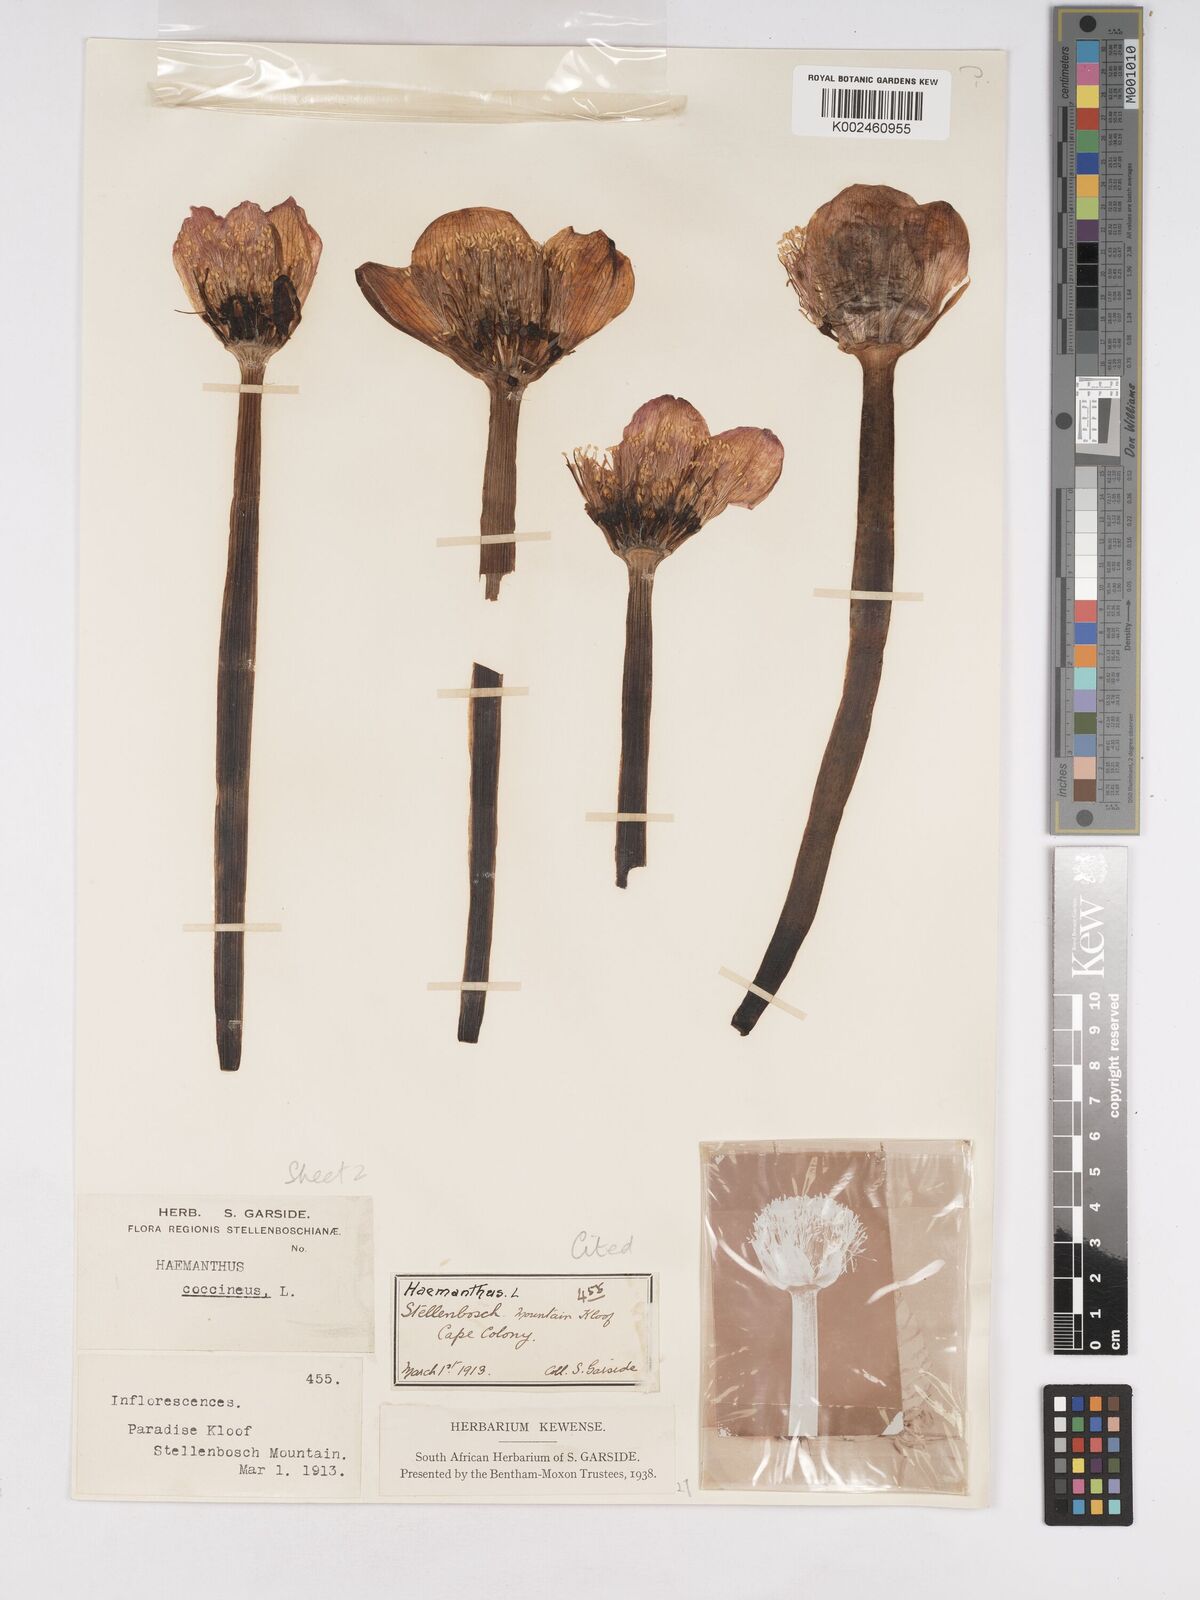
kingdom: Plantae
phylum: Tracheophyta
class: Liliopsida
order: Asparagales
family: Amaryllidaceae
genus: Haemanthus
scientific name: Haemanthus coccineus
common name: Cape-tulip
